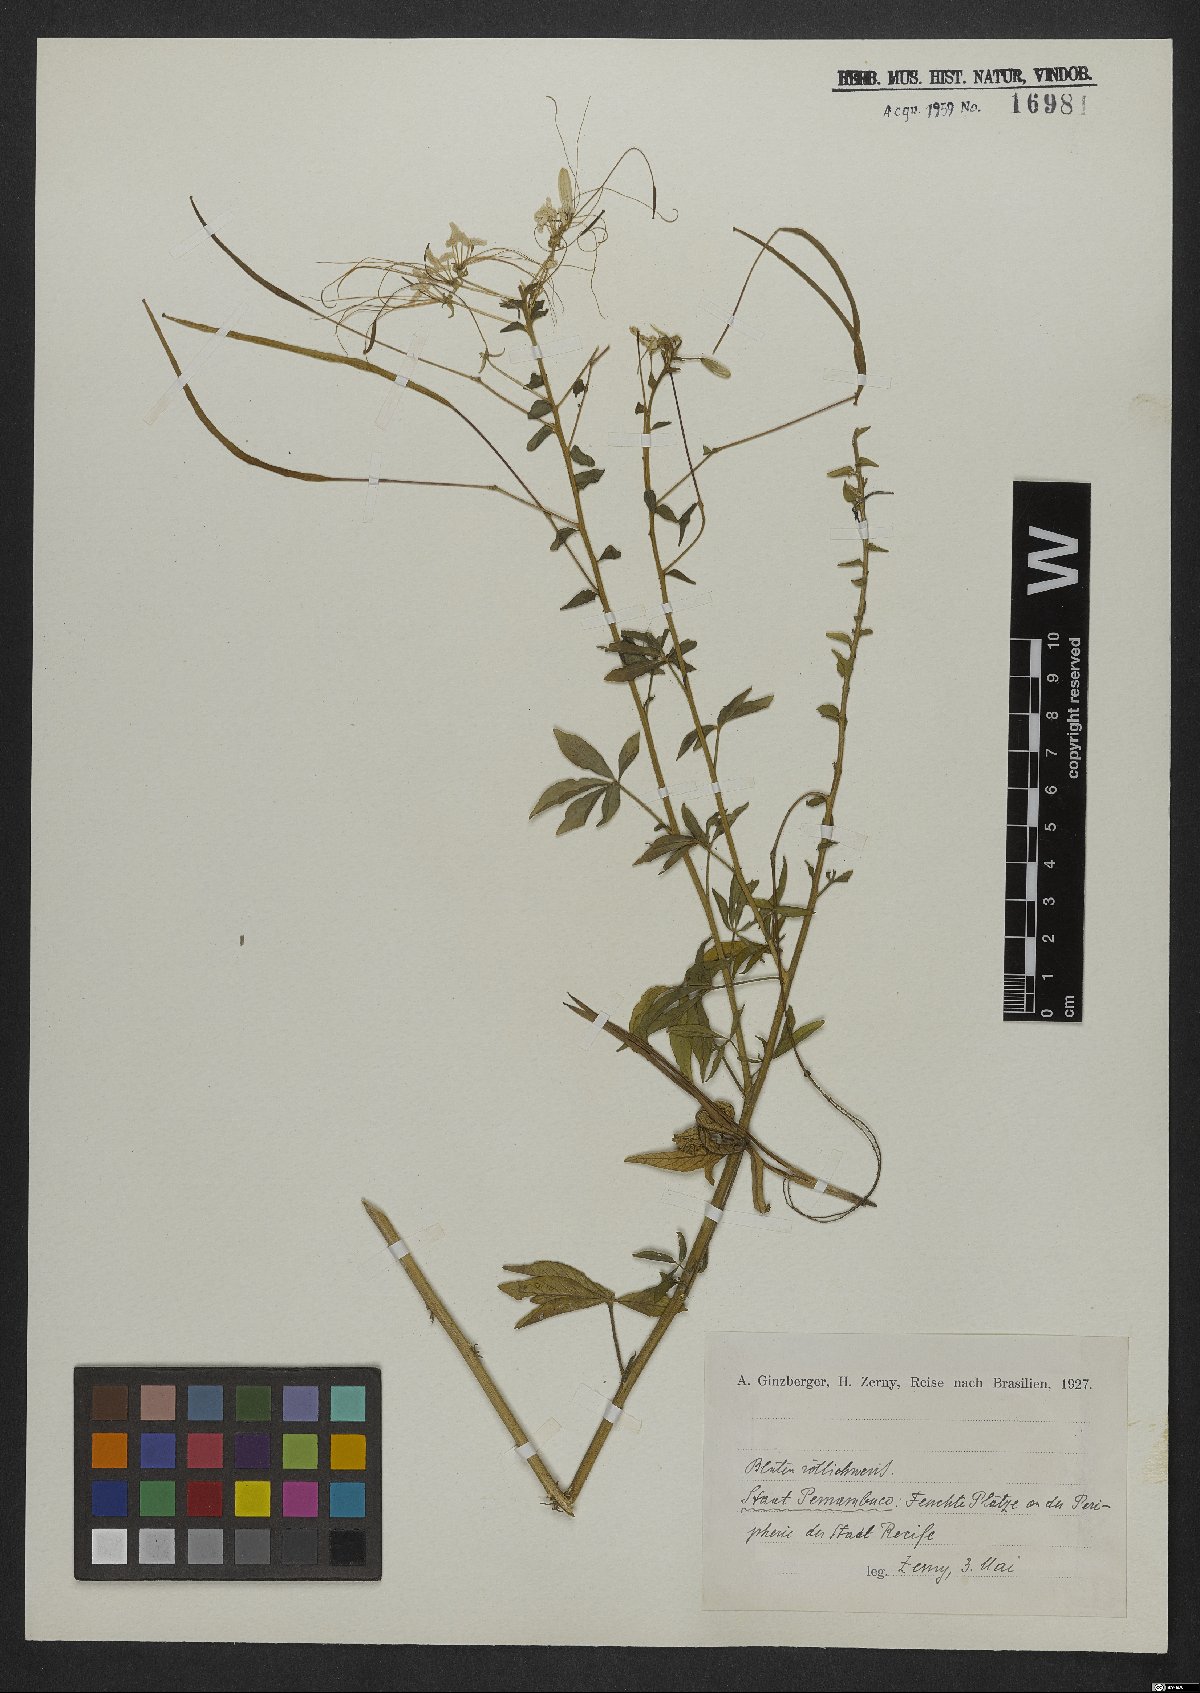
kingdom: Plantae
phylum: Tracheophyta
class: Magnoliopsida
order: Brassicales
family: Cleomaceae
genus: Cleome
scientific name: Cleome
